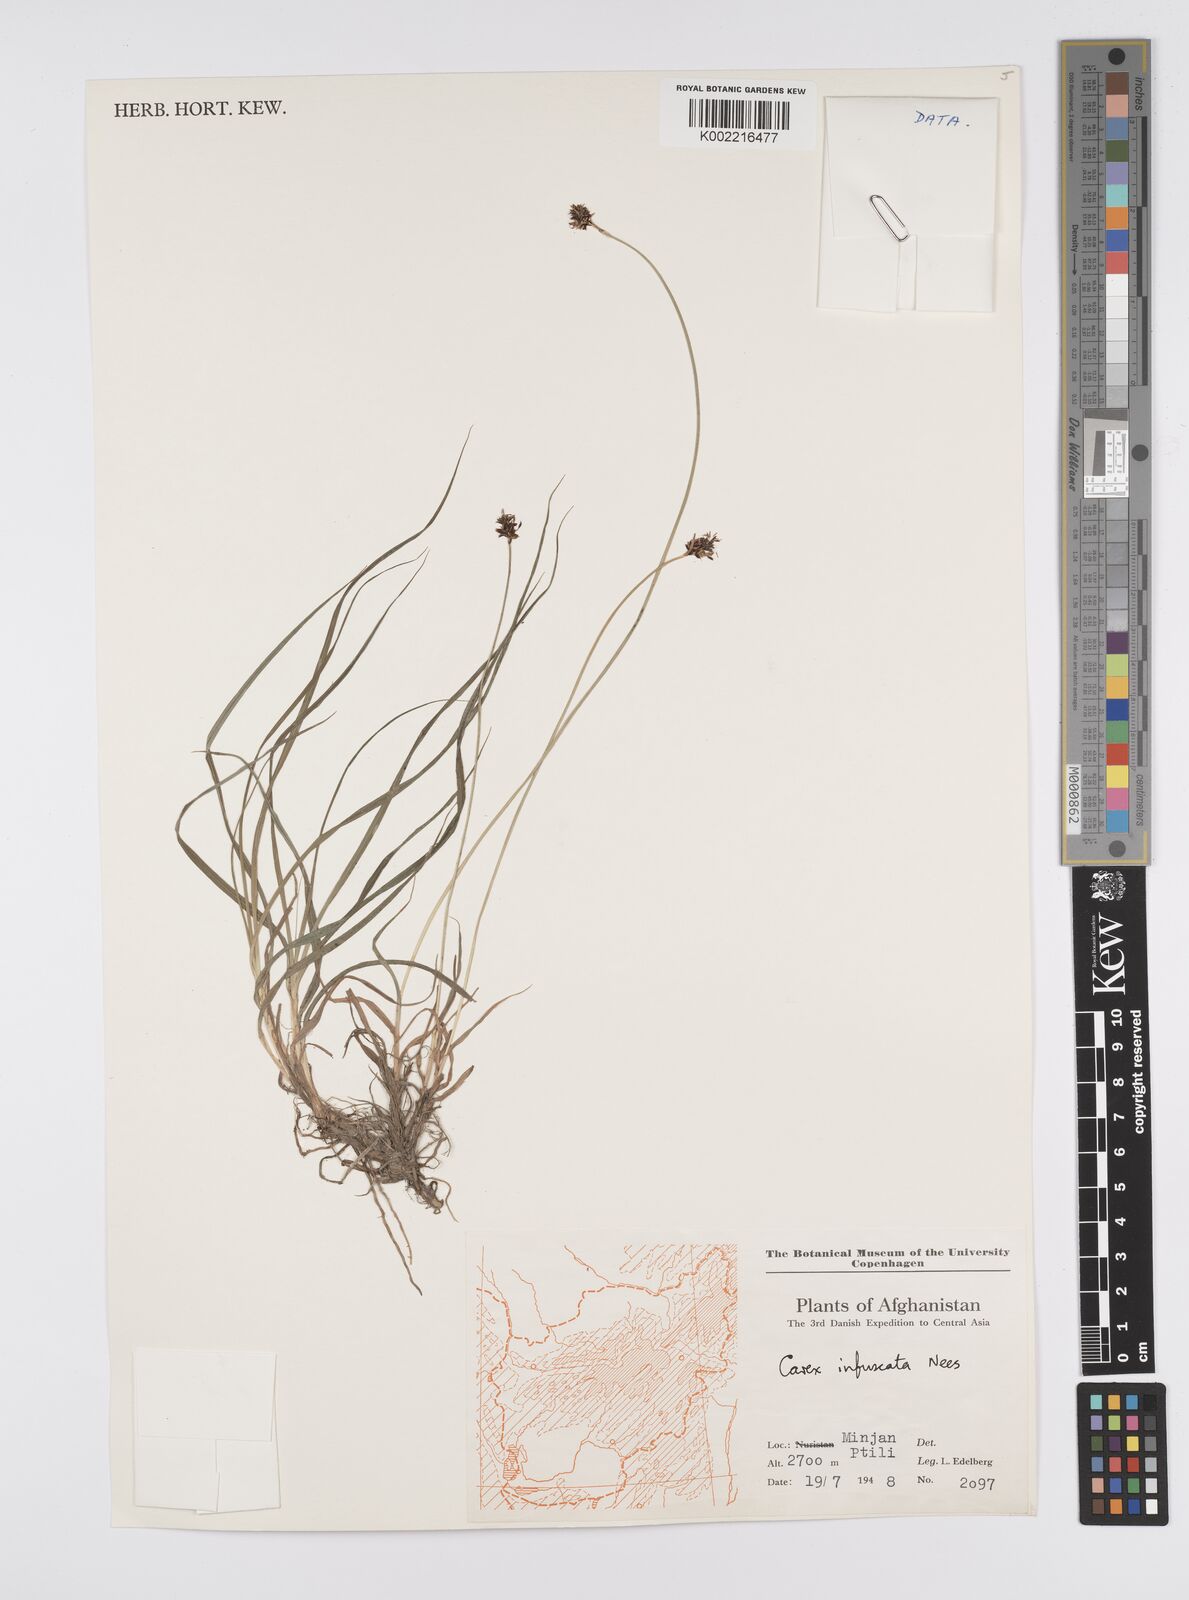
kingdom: Plantae
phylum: Tracheophyta
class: Liliopsida
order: Poales
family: Cyperaceae
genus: Carex
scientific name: Carex infuscata
